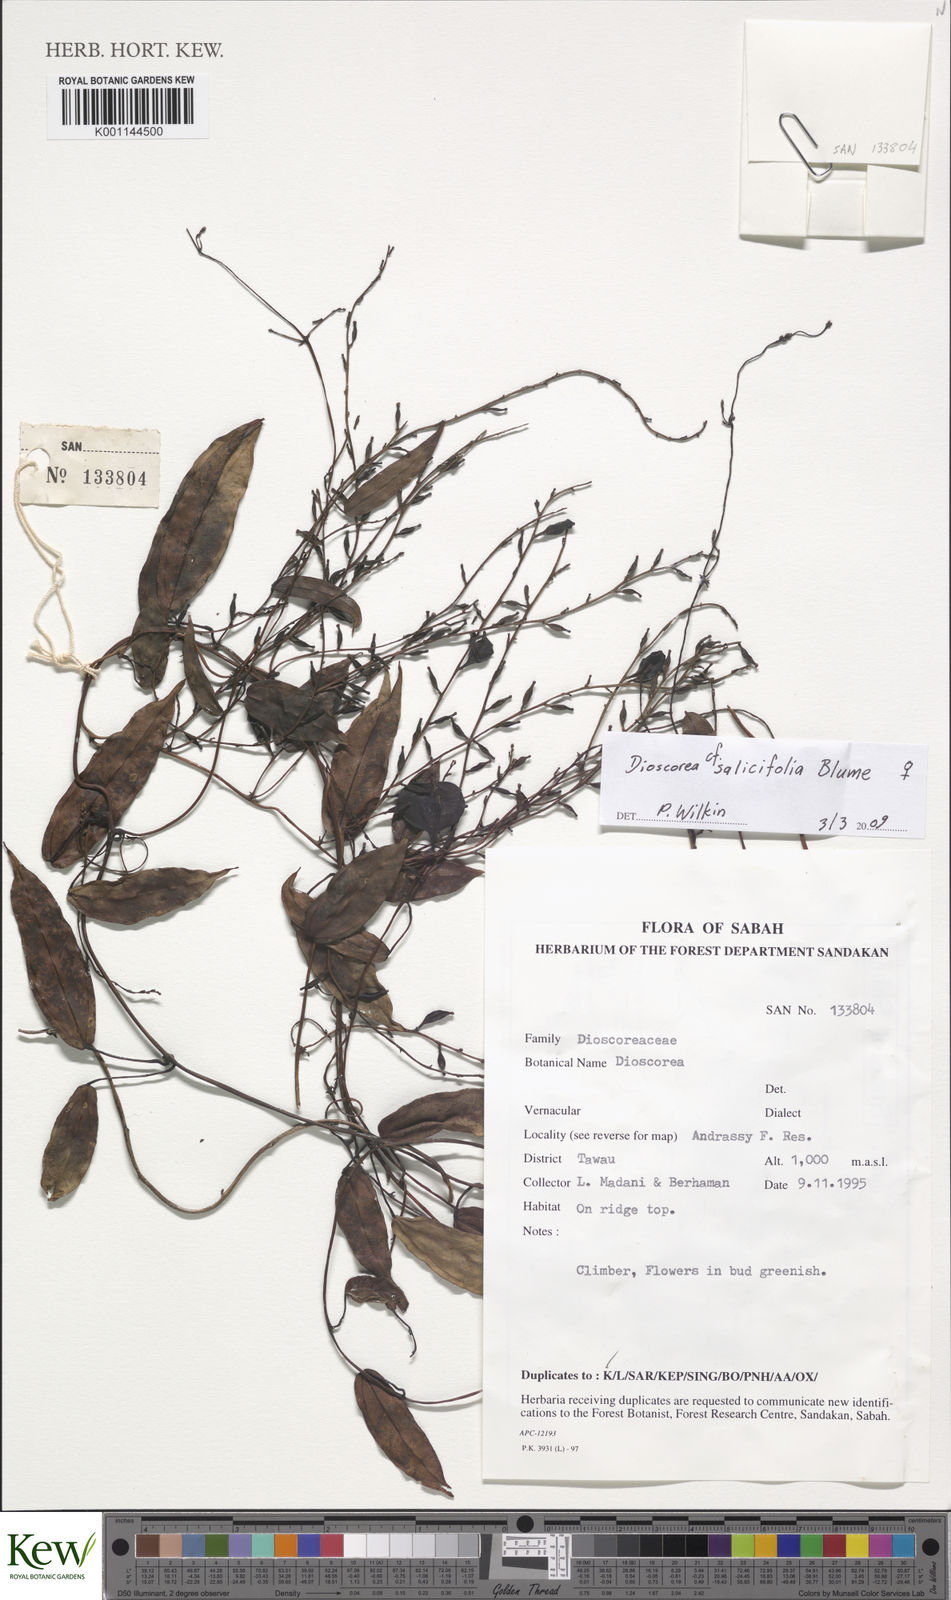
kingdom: Plantae
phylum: Tracheophyta
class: Liliopsida
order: Dioscoreales
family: Dioscoreaceae
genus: Dioscorea
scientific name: Dioscorea salicifolia
